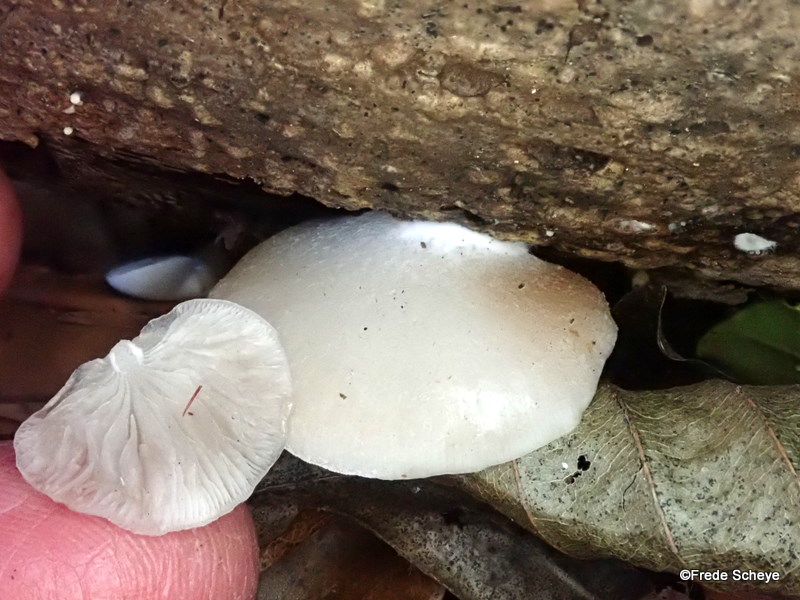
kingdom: Fungi
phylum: Basidiomycota
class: Agaricomycetes
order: Agaricales
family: Crepidotaceae
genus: Crepidotus
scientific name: Crepidotus mollis
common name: blød muslingesvamp
